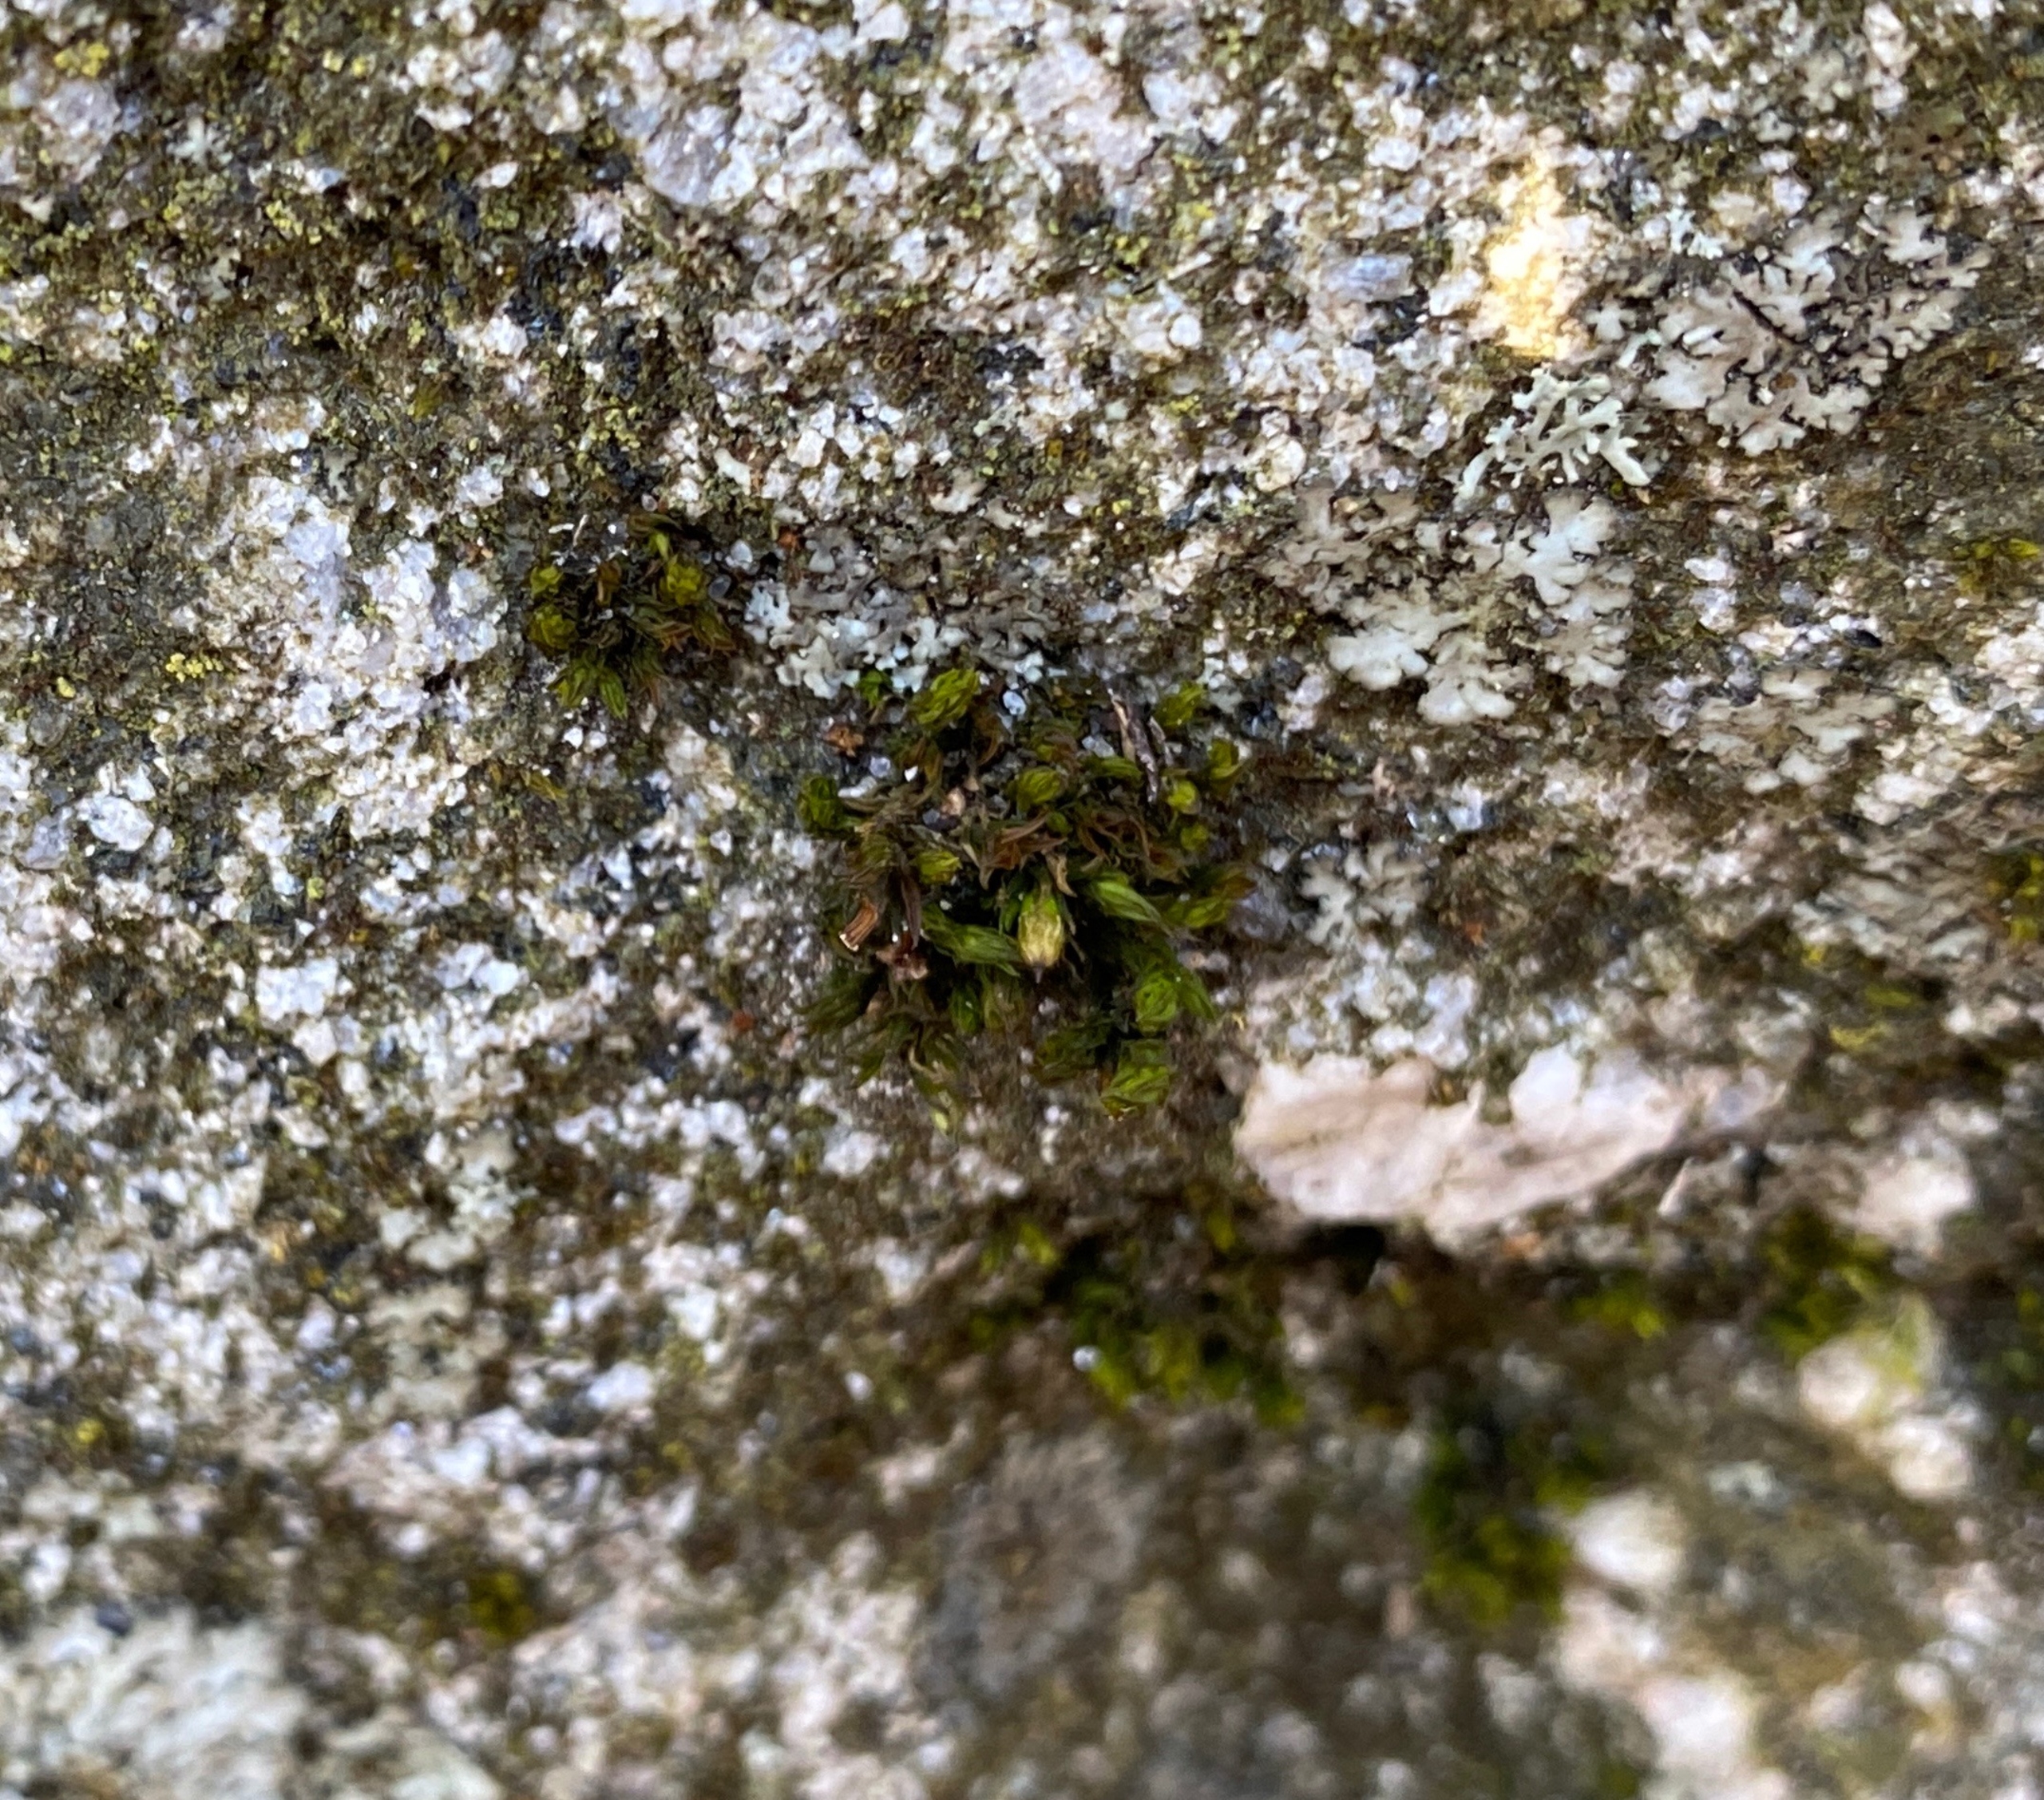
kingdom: Plantae
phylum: Bryophyta
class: Bryopsida
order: Orthotrichales
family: Orthotrichaceae
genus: Lewinskya
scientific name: Lewinskya affinis
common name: Almindelig furehætte
